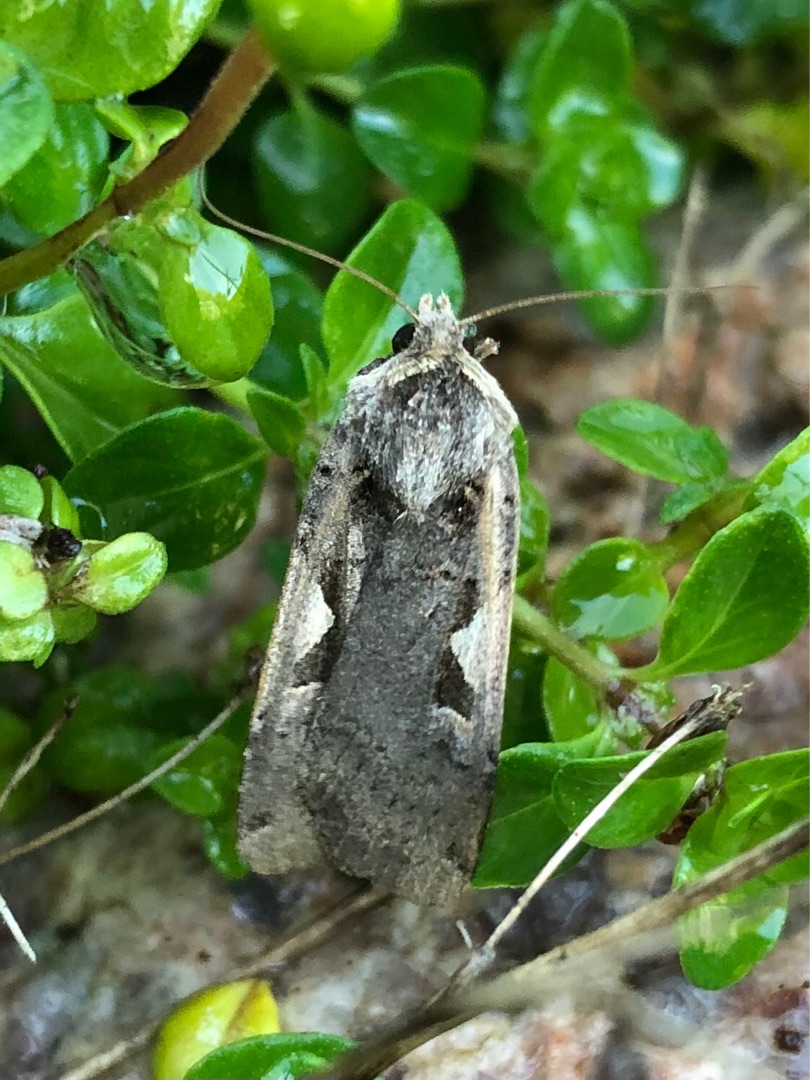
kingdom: Animalia
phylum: Arthropoda
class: Insecta
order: Lepidoptera
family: Noctuidae
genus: Xestia
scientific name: Xestia c-nigrum
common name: Det sorte c
